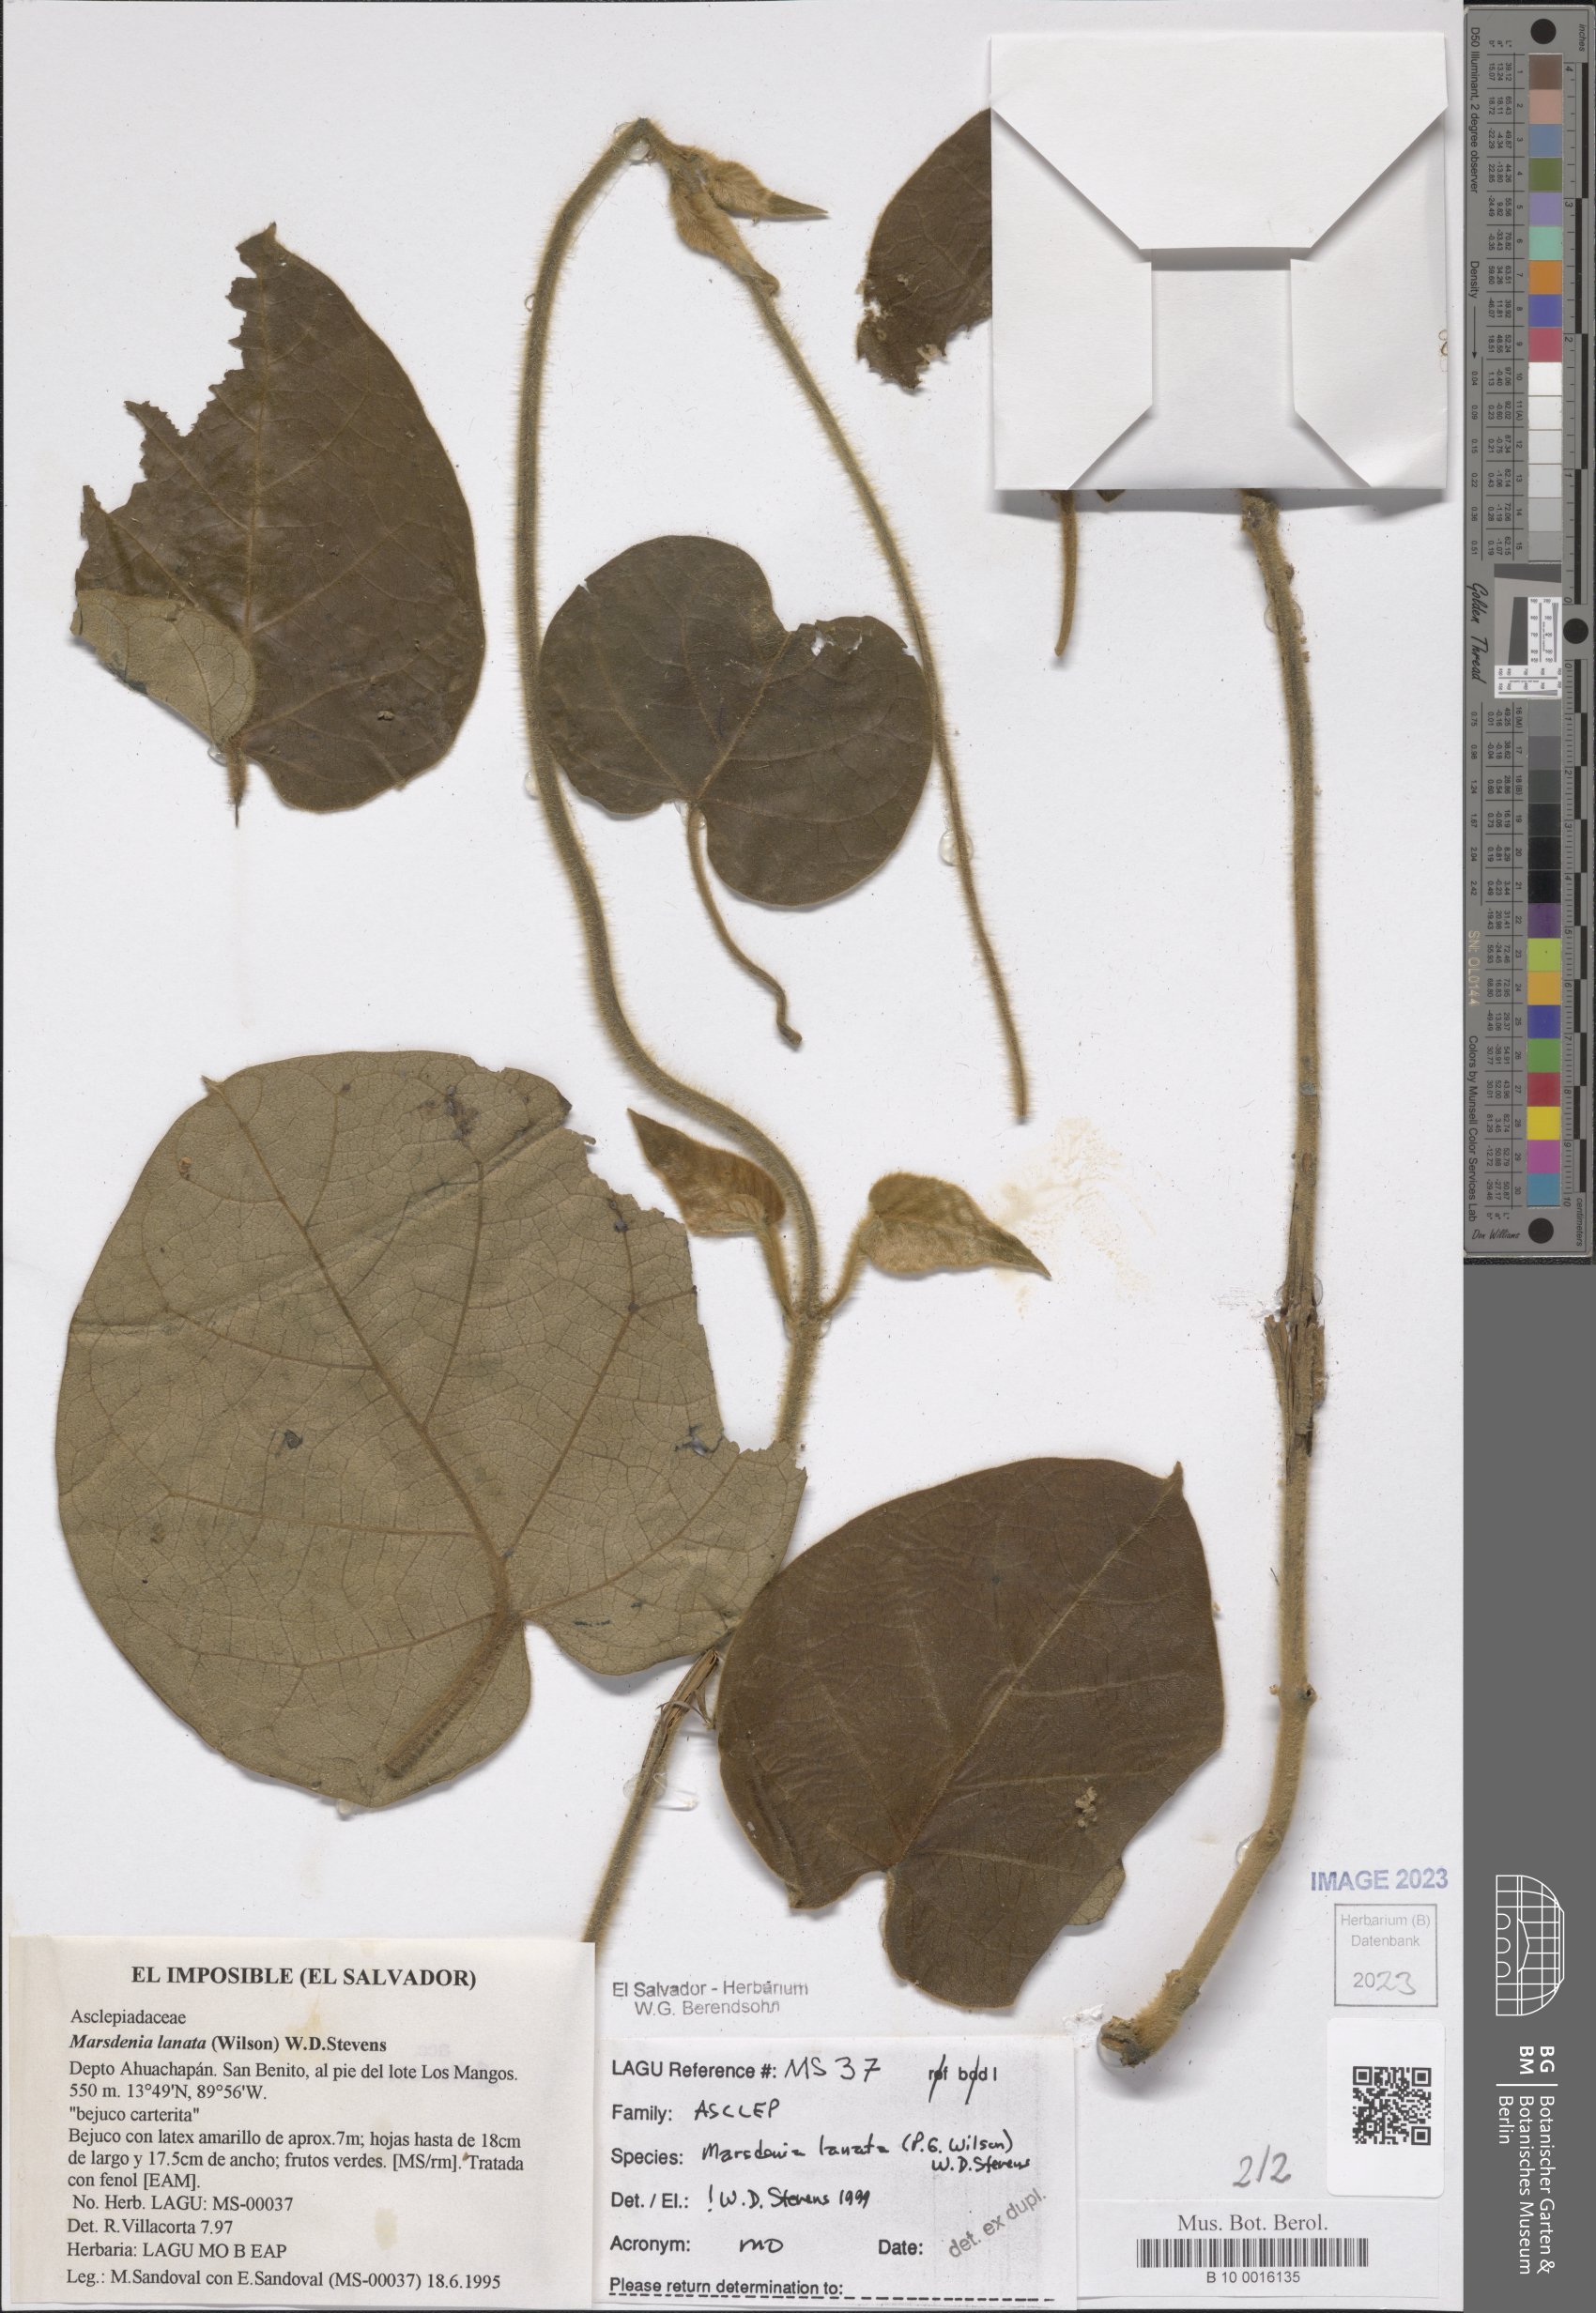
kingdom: Plantae
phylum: Tracheophyta
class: Magnoliopsida
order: Gentianales
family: Apocynaceae
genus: Ruehssia
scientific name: Ruehssia lanata
